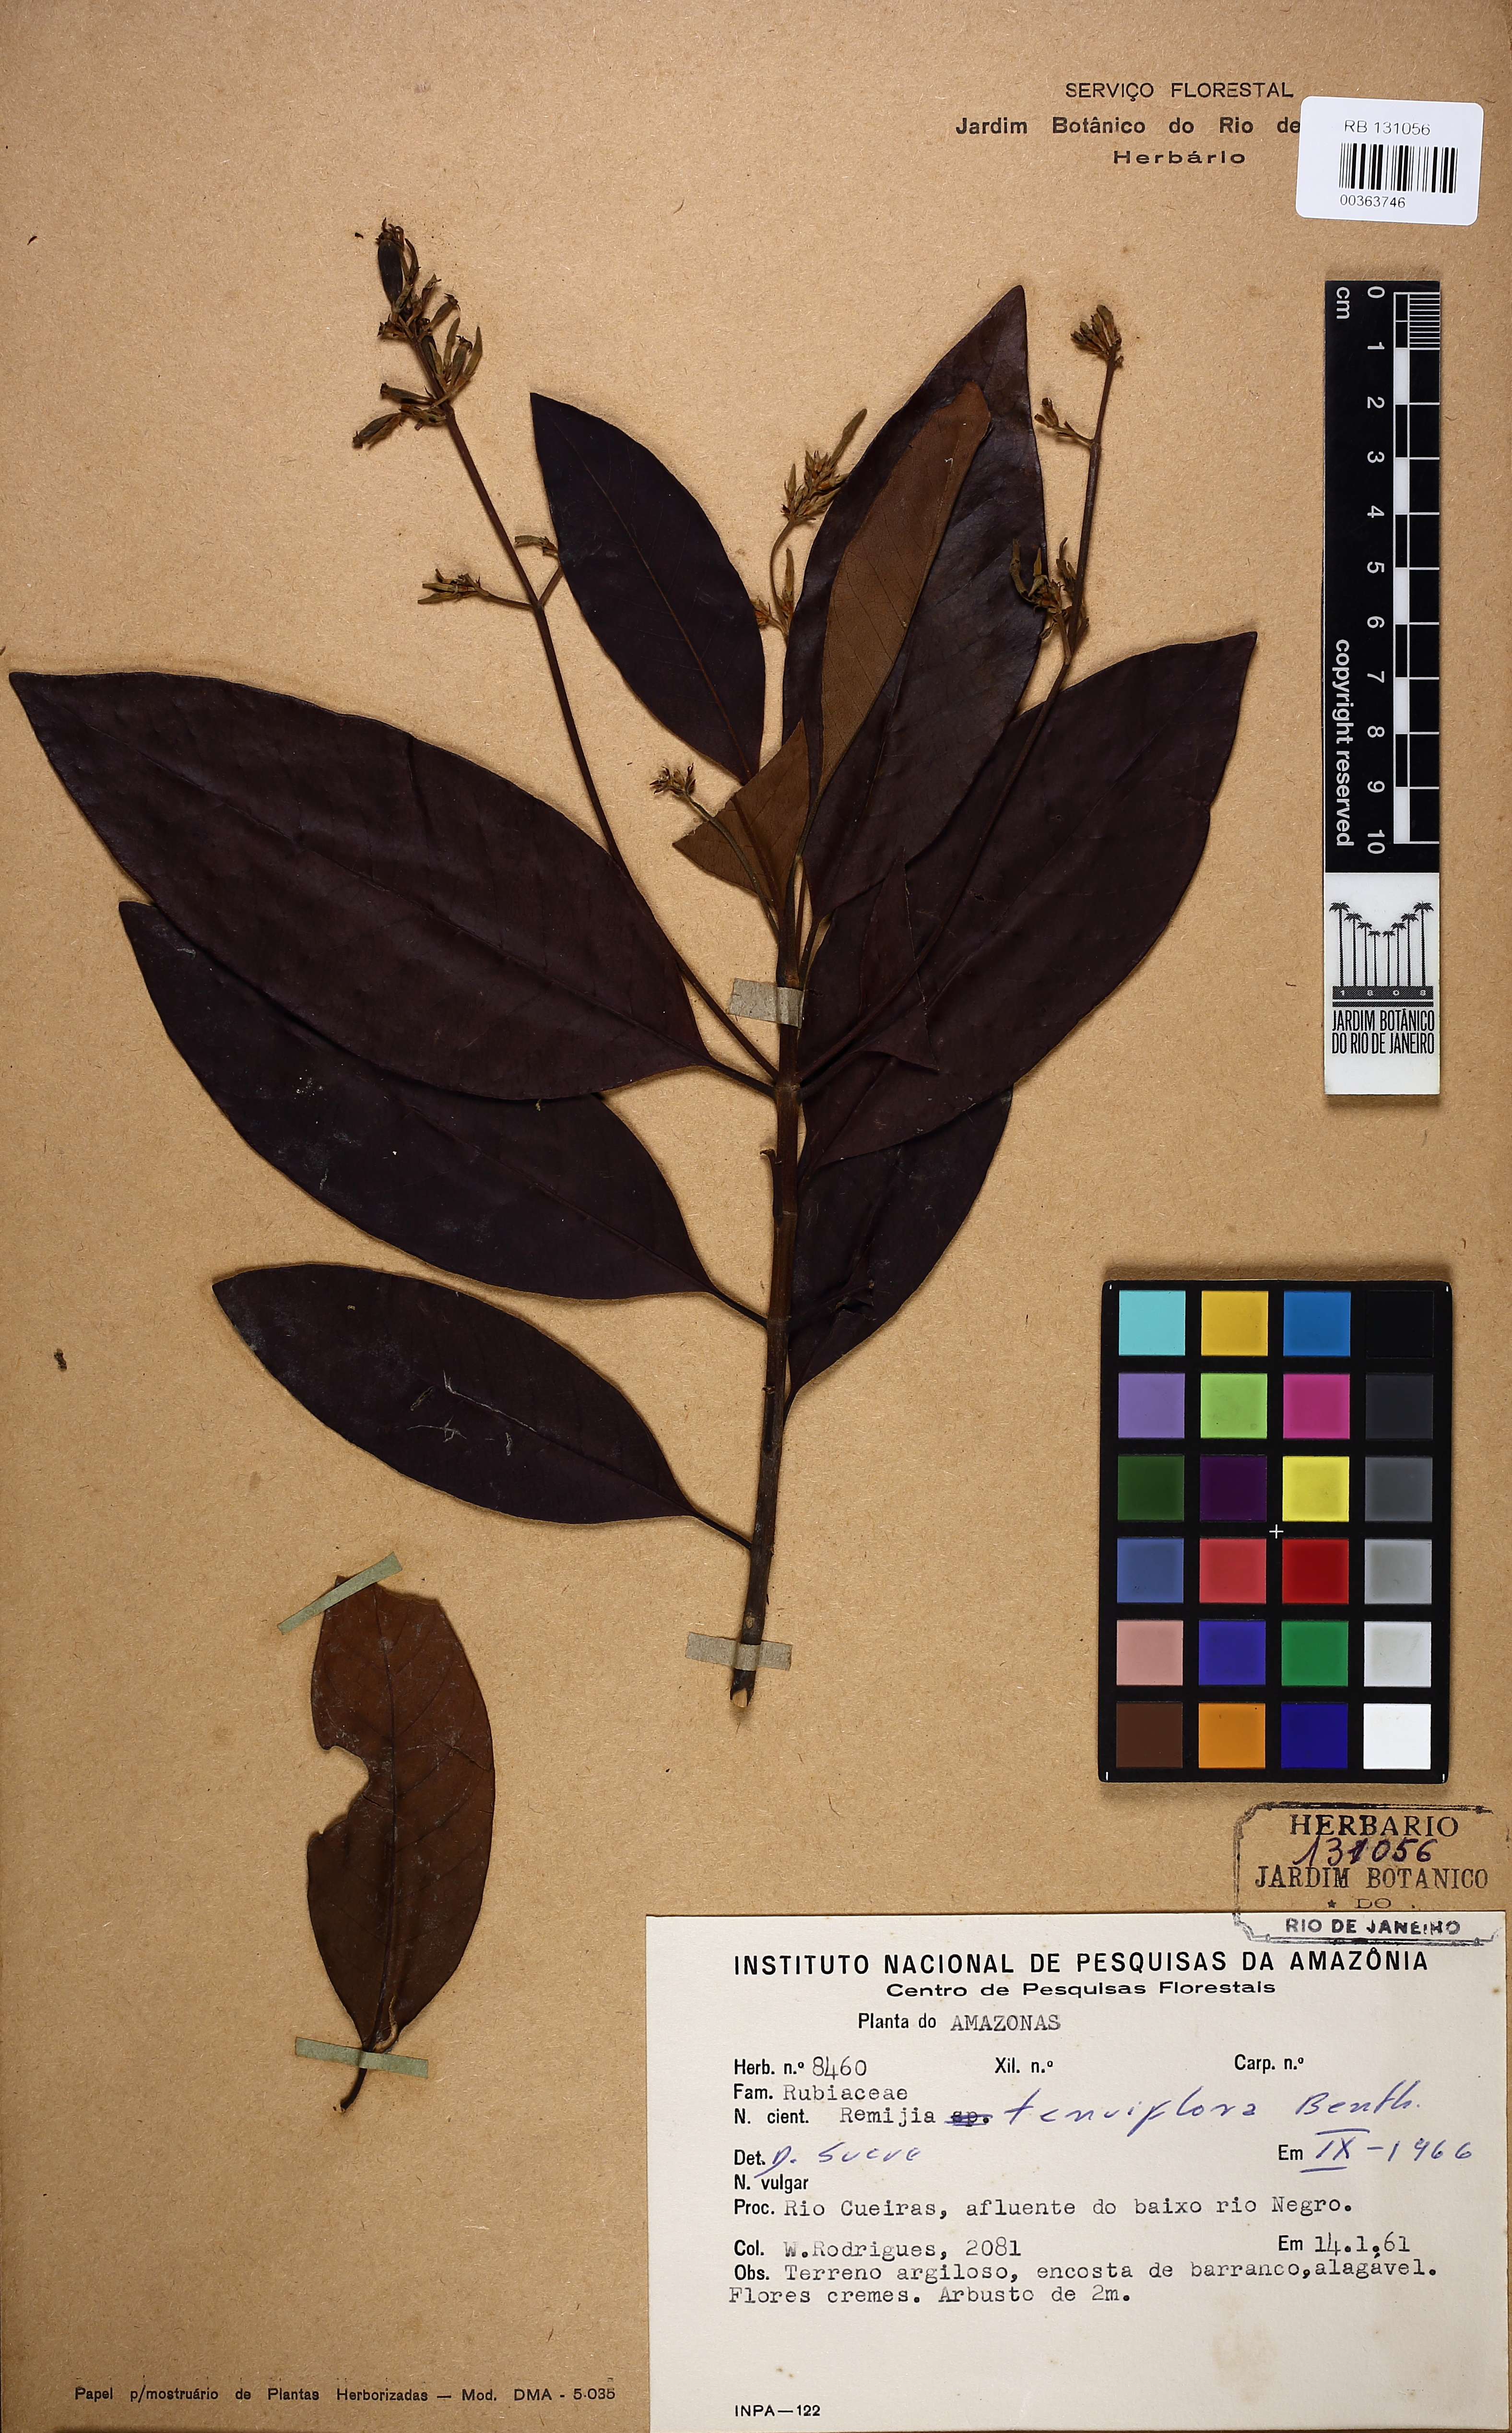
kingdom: Plantae
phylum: Tracheophyta
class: Magnoliopsida
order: Gentianales
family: Rubiaceae
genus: Remijia
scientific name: Remijia tenuiflora
